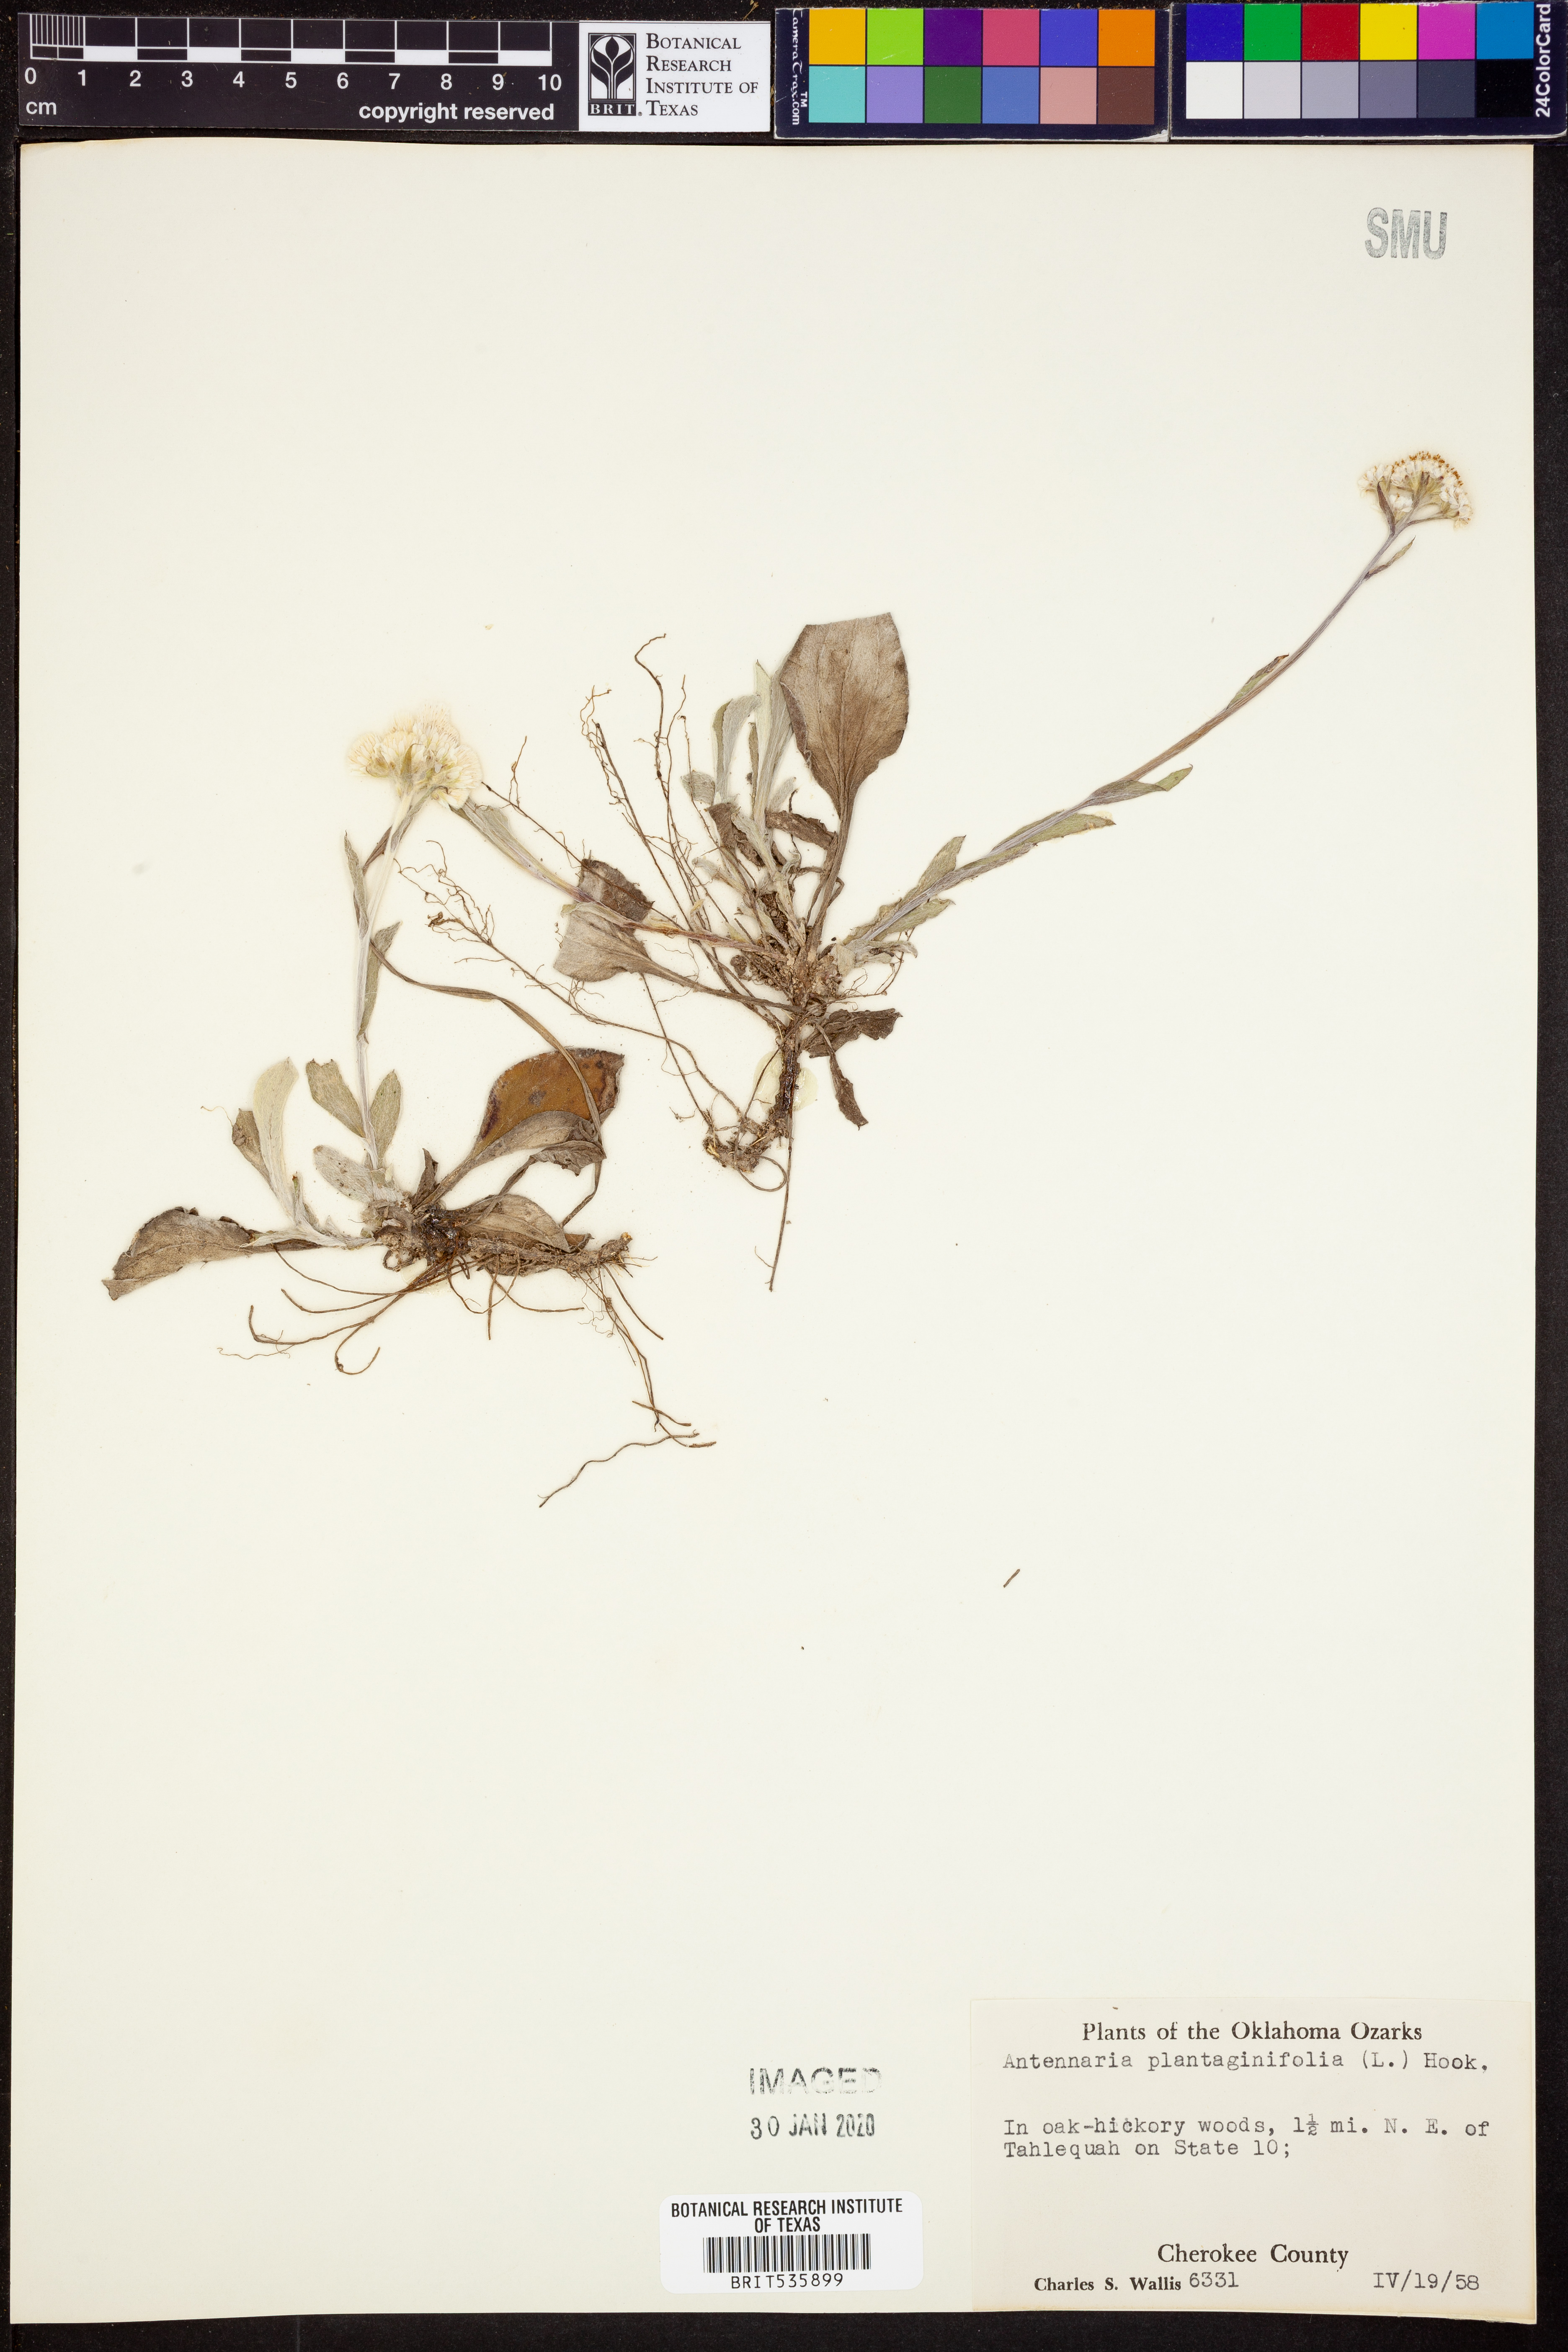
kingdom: Plantae
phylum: Tracheophyta
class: Magnoliopsida
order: Asterales
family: Asteraceae
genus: Antennaria
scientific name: Antennaria plantaginifolia
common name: Plantain-leaved pussytoes
